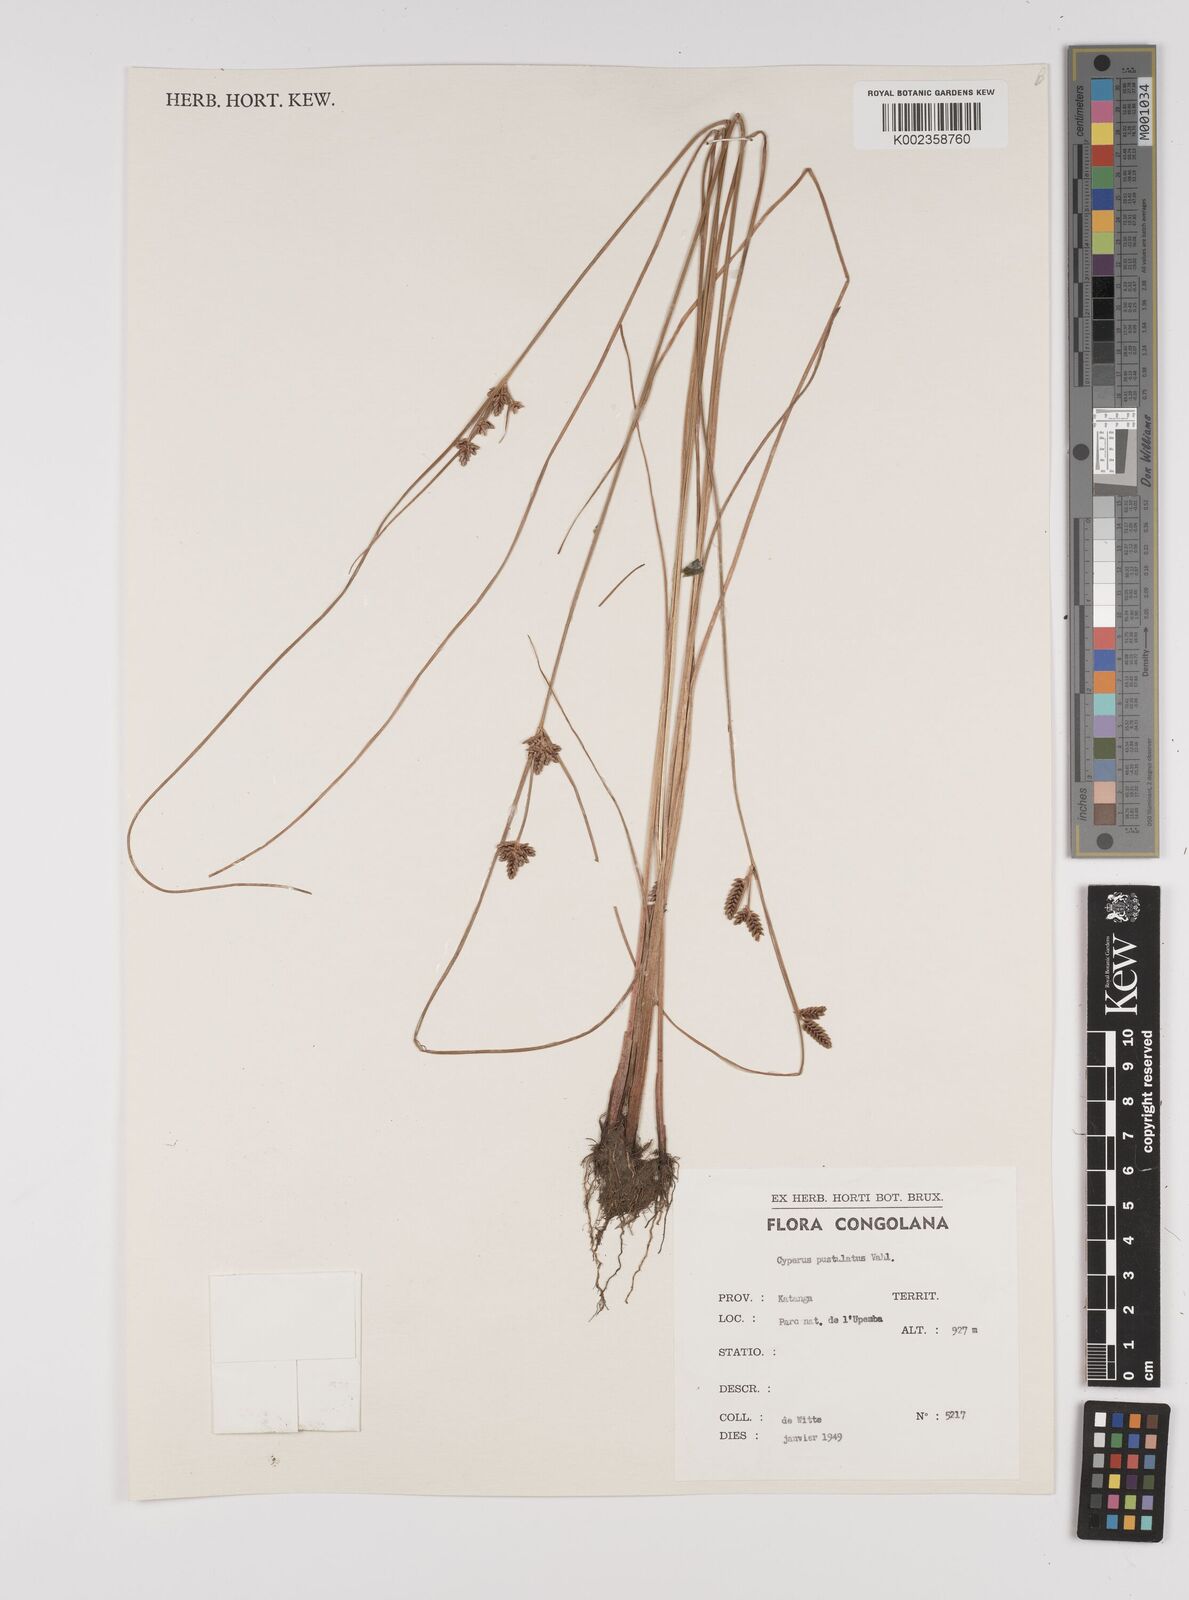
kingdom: Plantae
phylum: Tracheophyta
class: Liliopsida
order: Poales
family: Cyperaceae
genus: Cyperus
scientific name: Cyperus pustulatus
